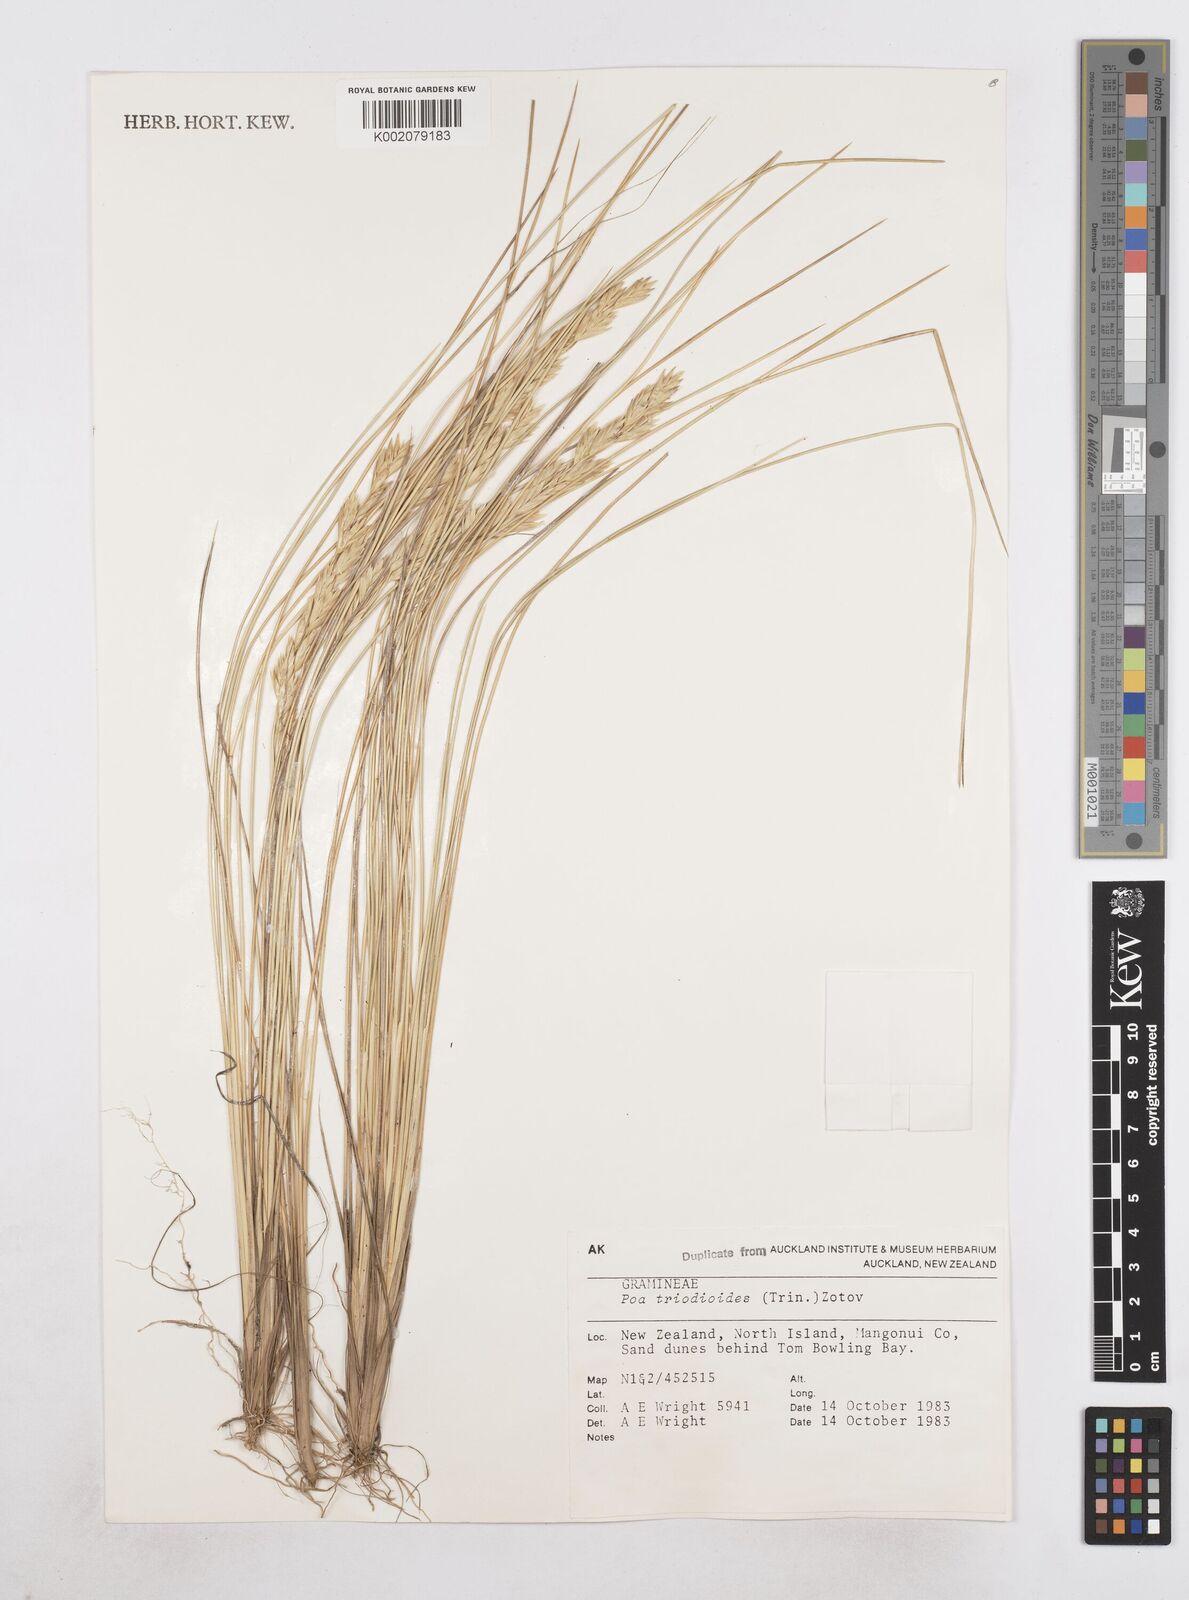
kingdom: Plantae
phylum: Tracheophyta
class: Liliopsida
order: Poales
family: Poaceae
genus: Poa
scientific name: Poa triodioides
